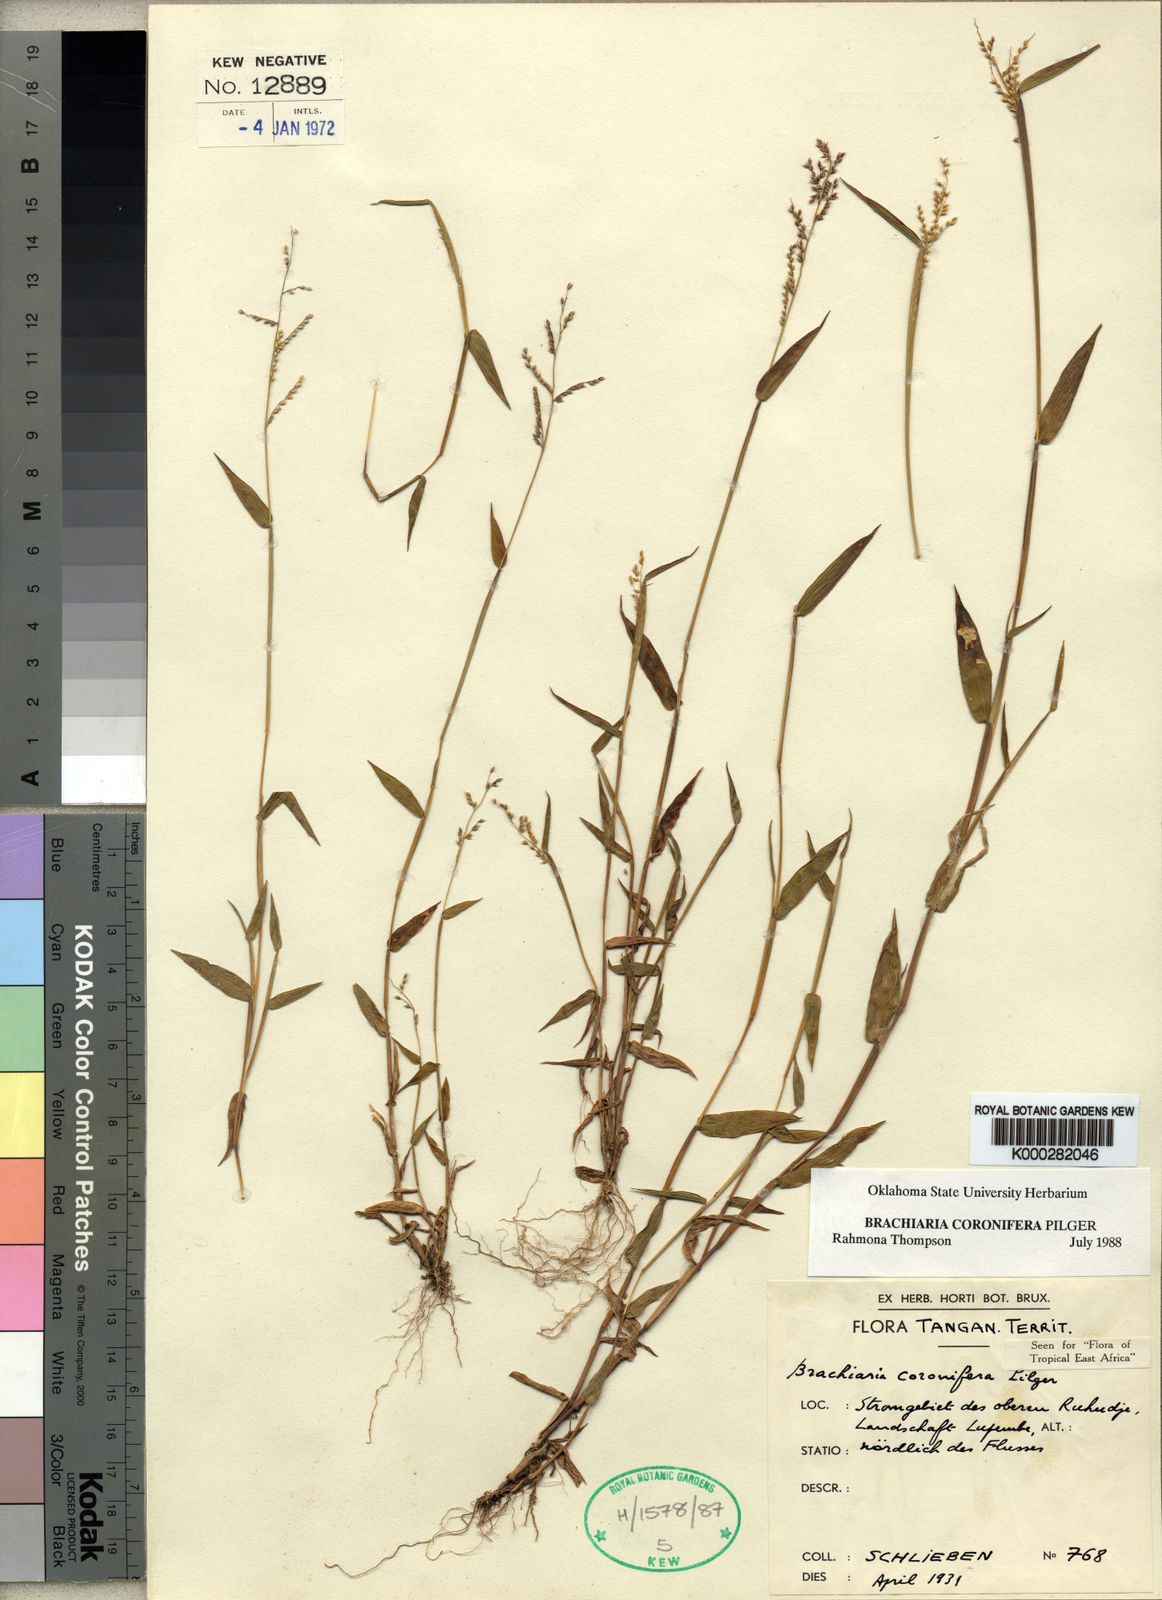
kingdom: Plantae
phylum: Tracheophyta
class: Liliopsida
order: Poales
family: Poaceae
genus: Urochloa
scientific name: Urochloa comata
